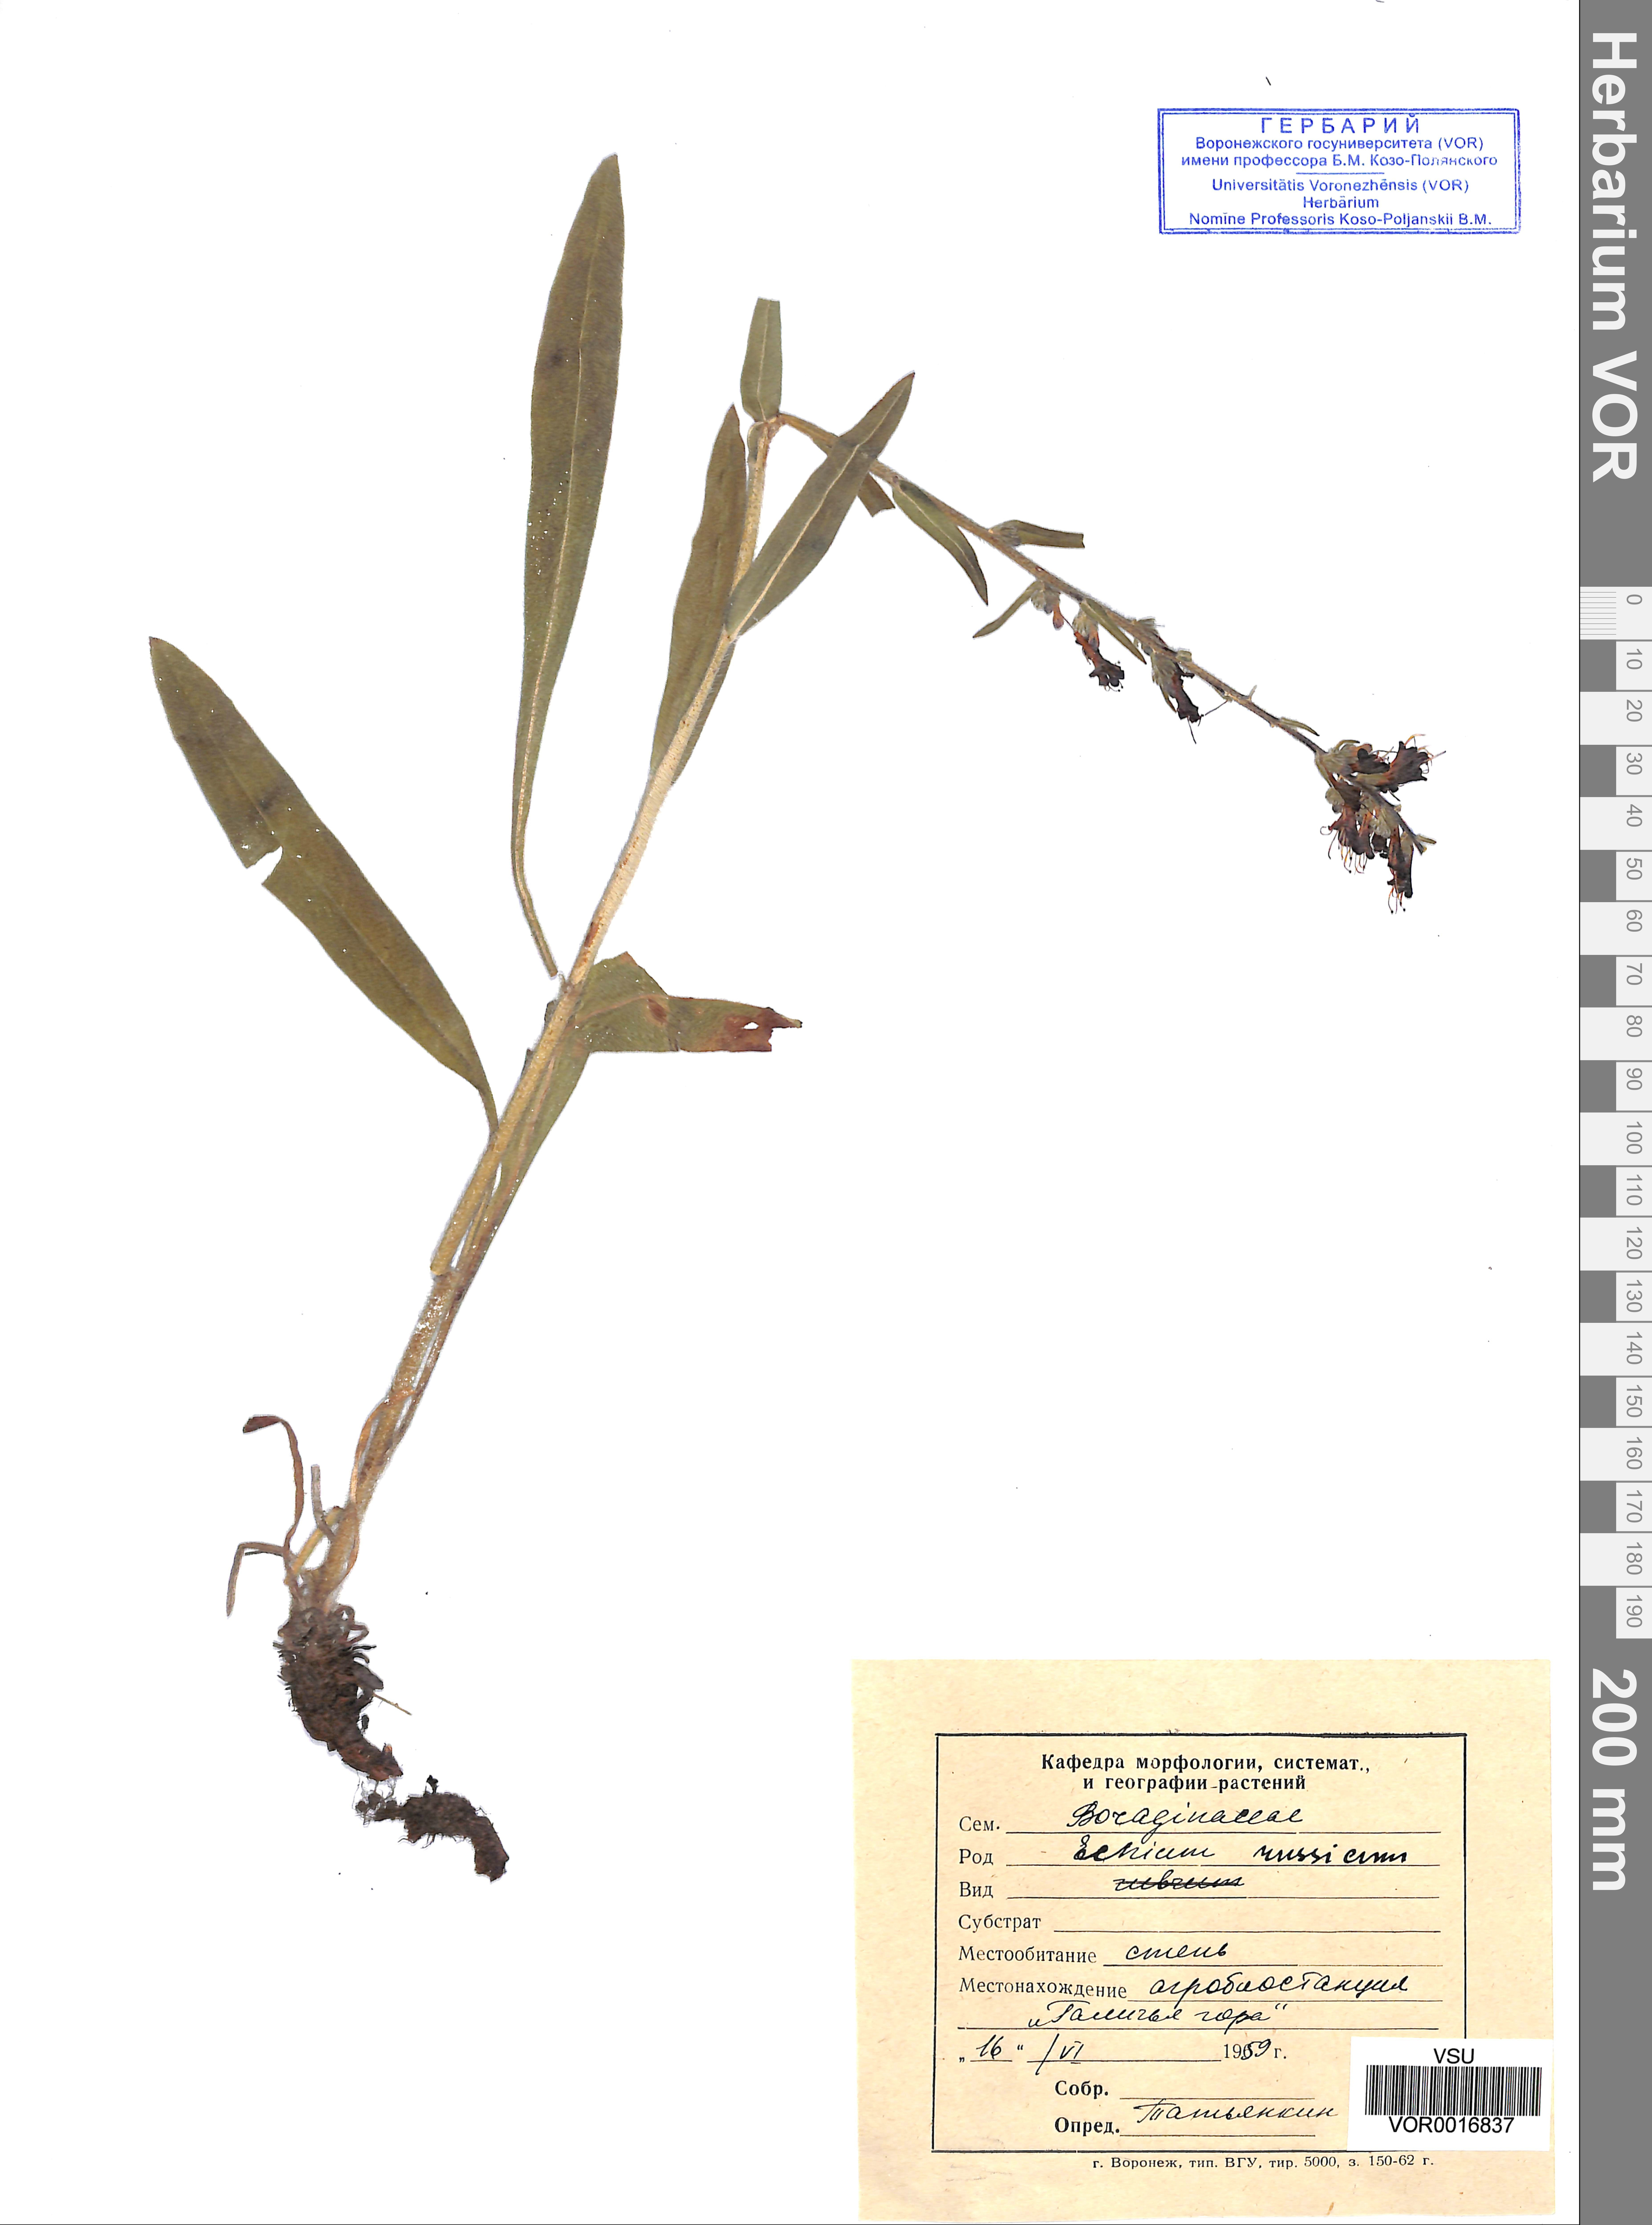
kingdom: Plantae
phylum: Tracheophyta
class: Magnoliopsida
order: Boraginales
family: Boraginaceae
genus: Pontechium
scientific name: Pontechium maculatum
